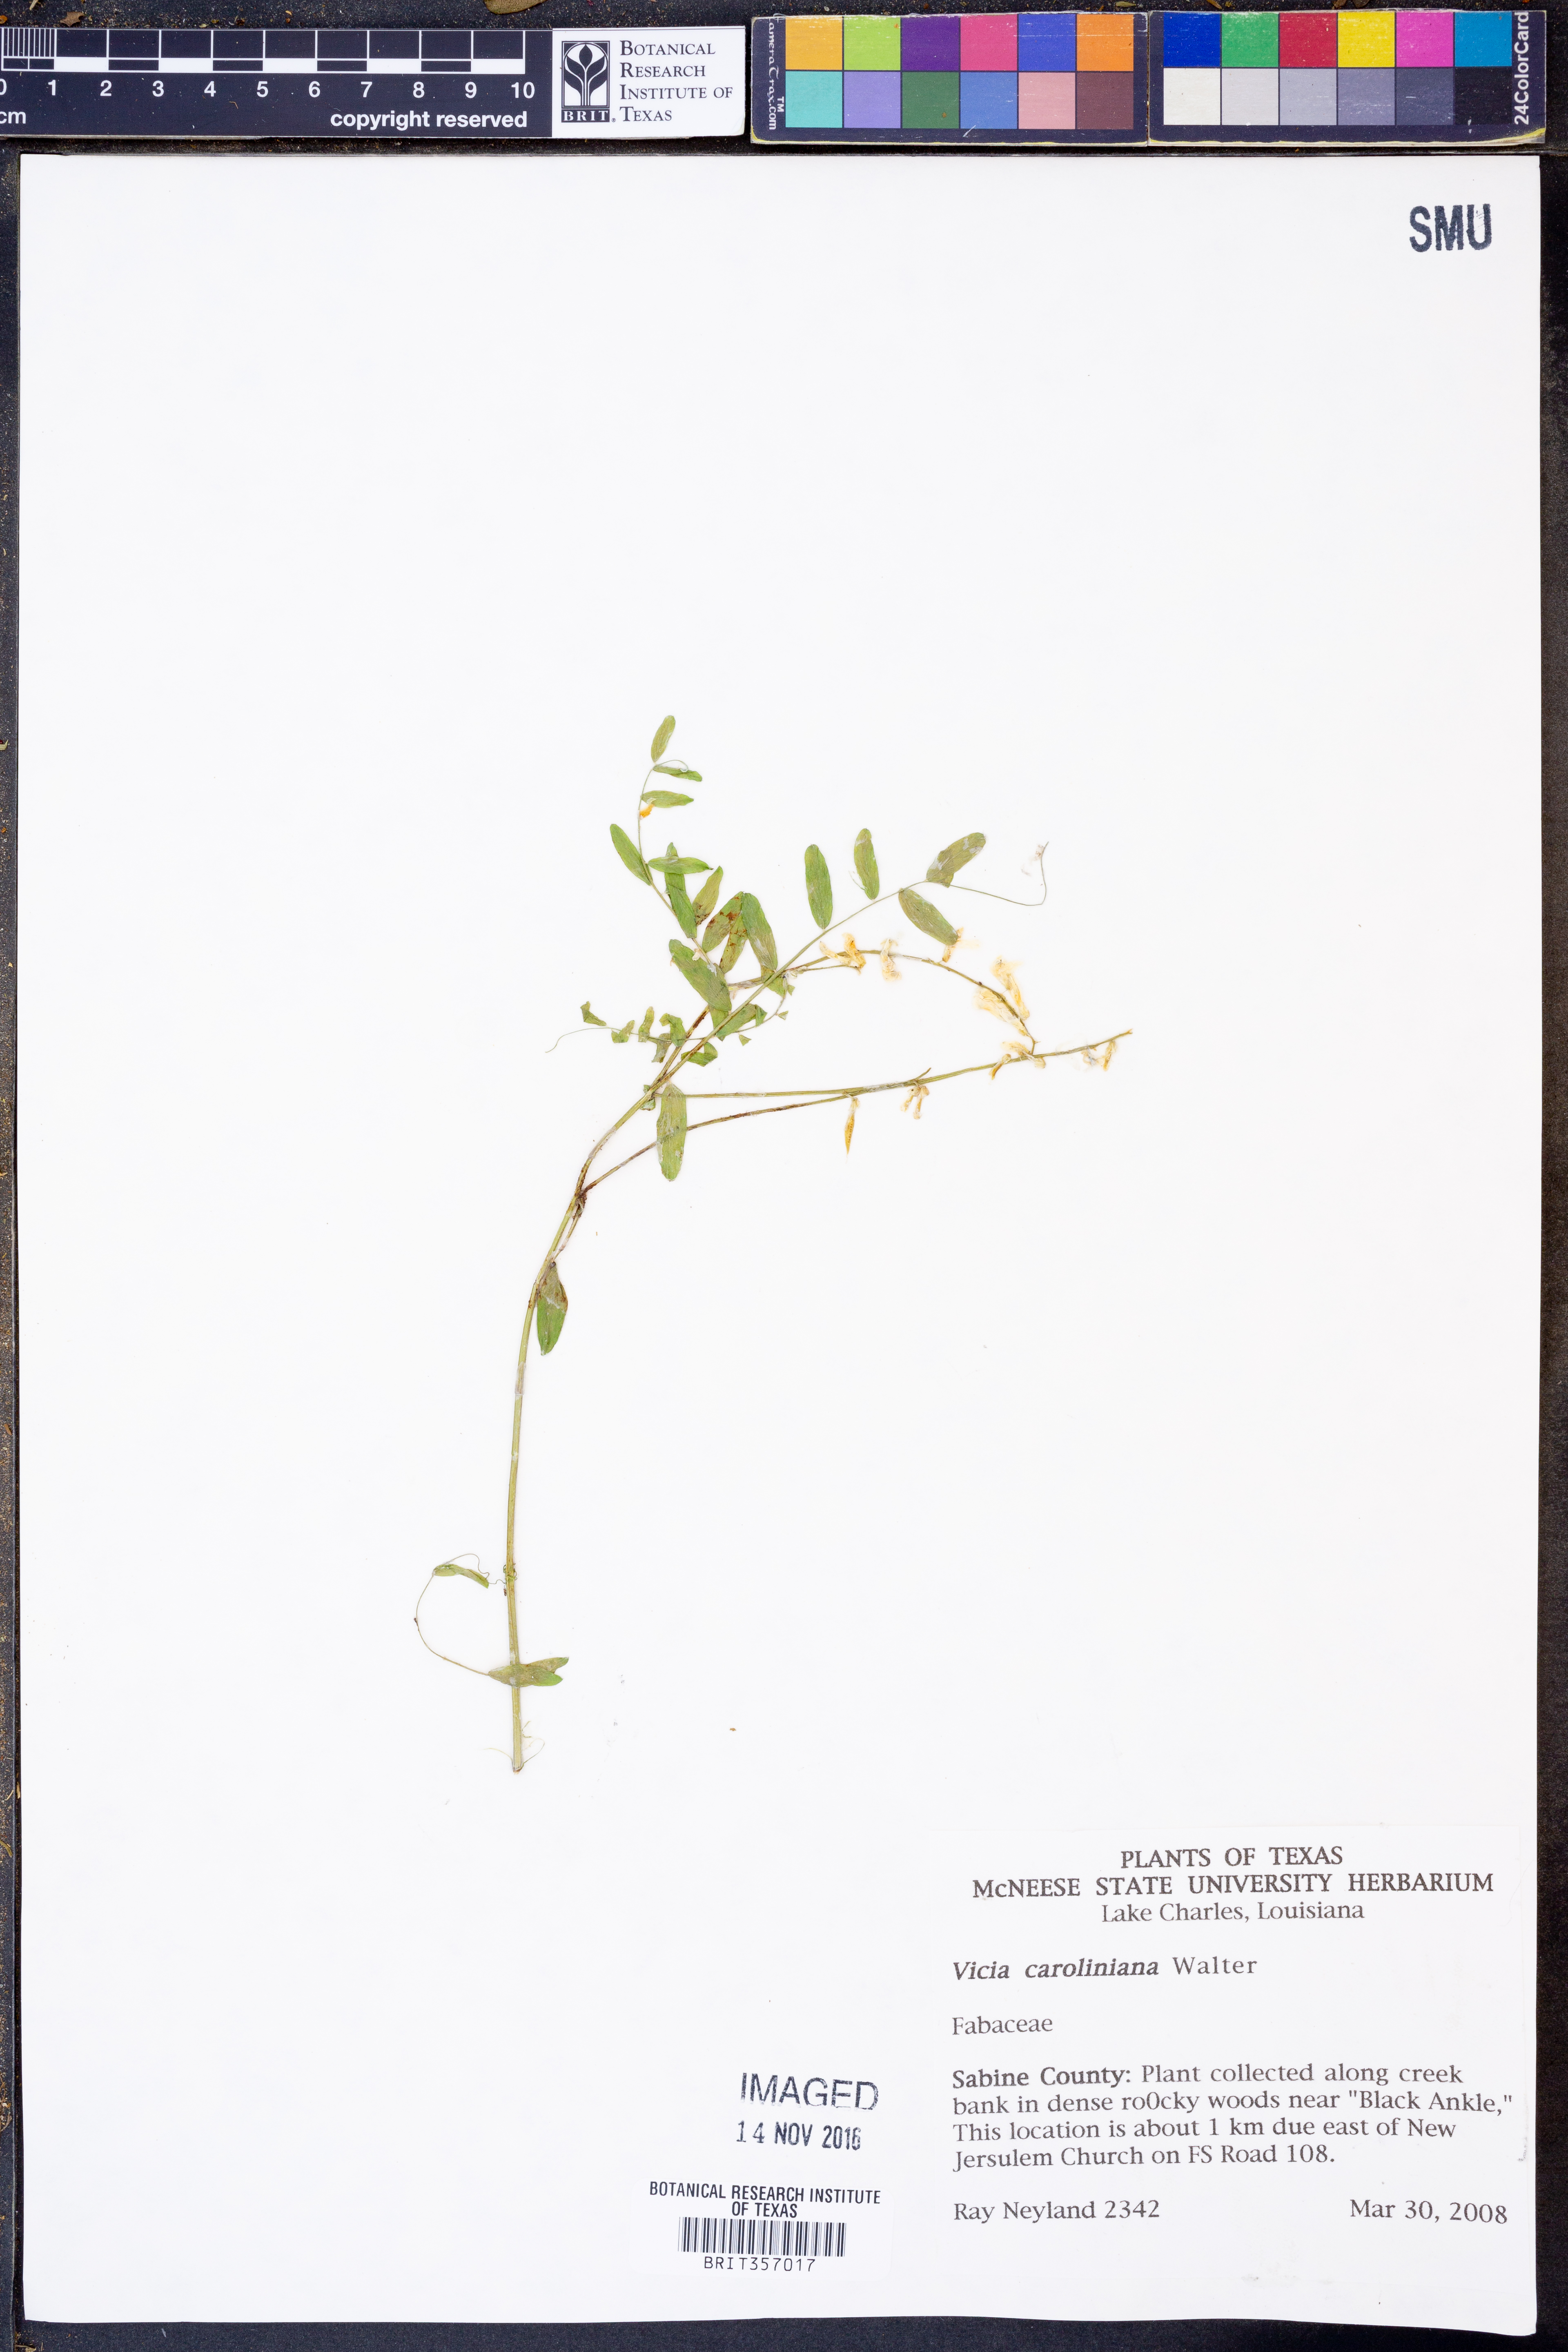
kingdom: Plantae
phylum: Tracheophyta
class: Magnoliopsida
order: Fabales
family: Fabaceae
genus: Vicia
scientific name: Vicia caroliniana
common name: Carolina vetch
